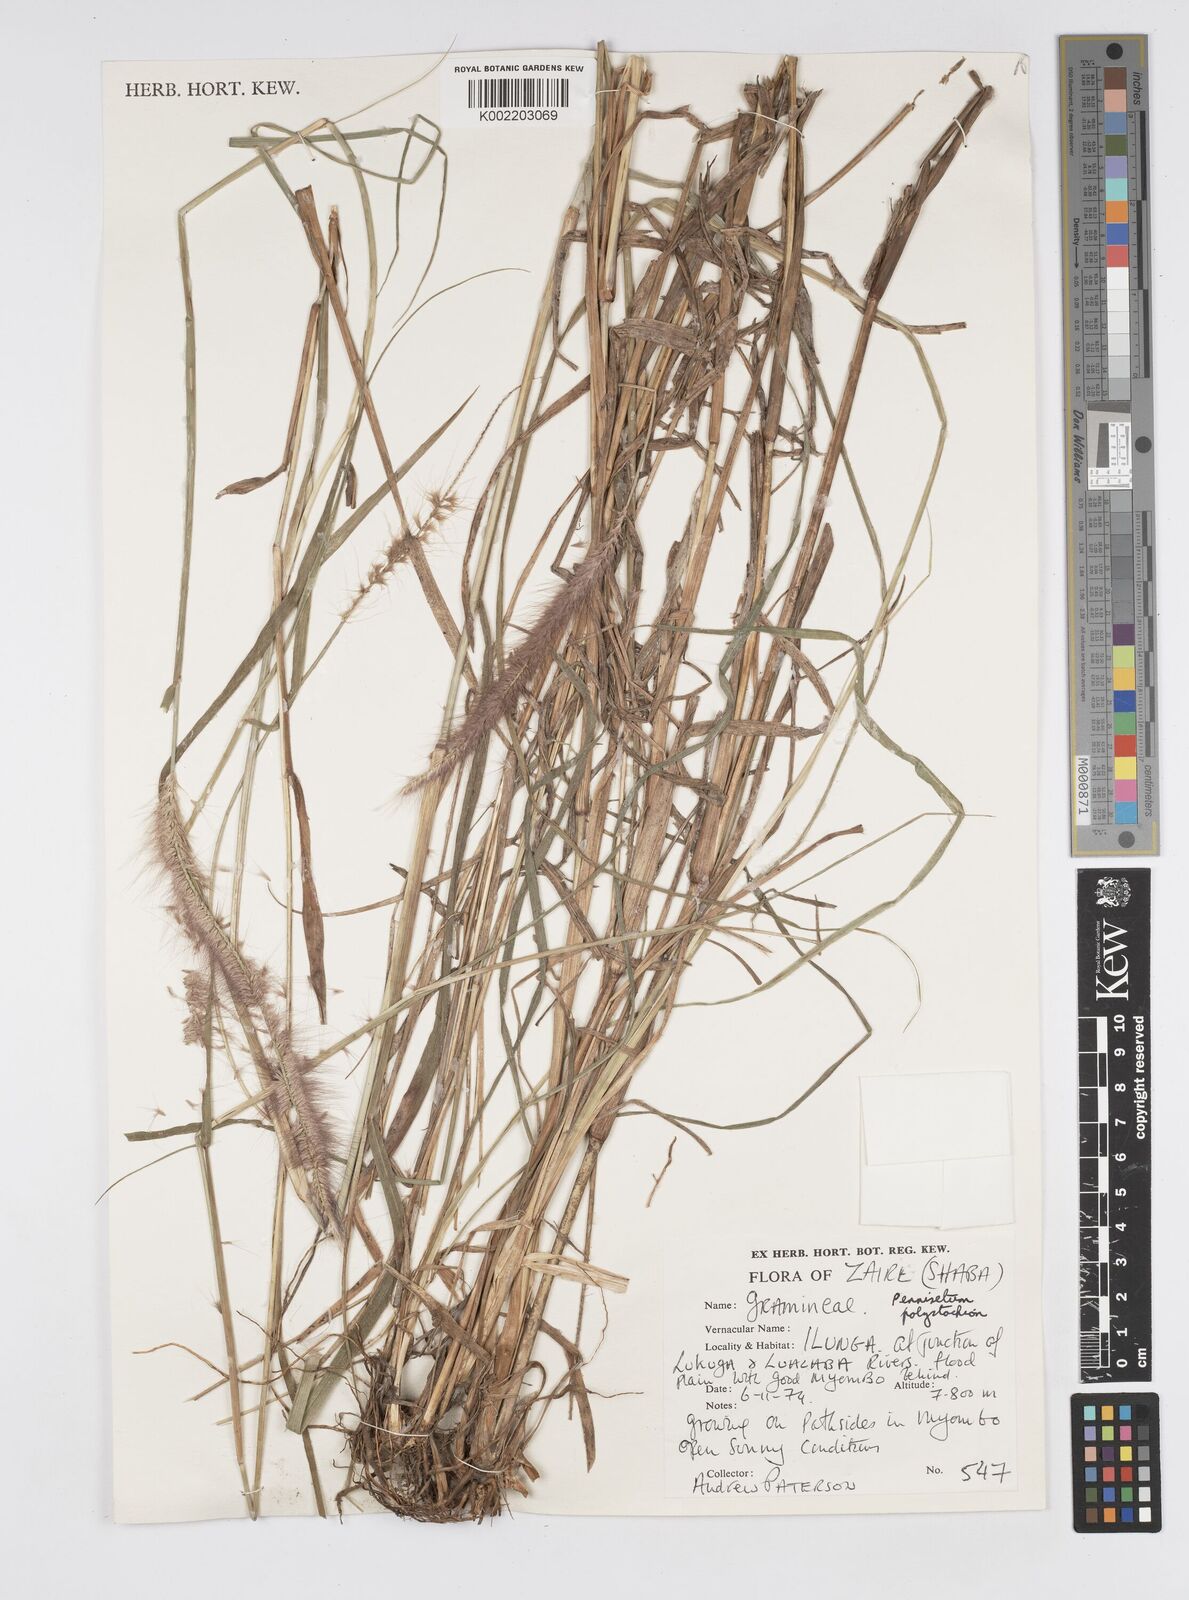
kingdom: Plantae
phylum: Tracheophyta
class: Liliopsida
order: Poales
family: Poaceae
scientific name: Poaceae
